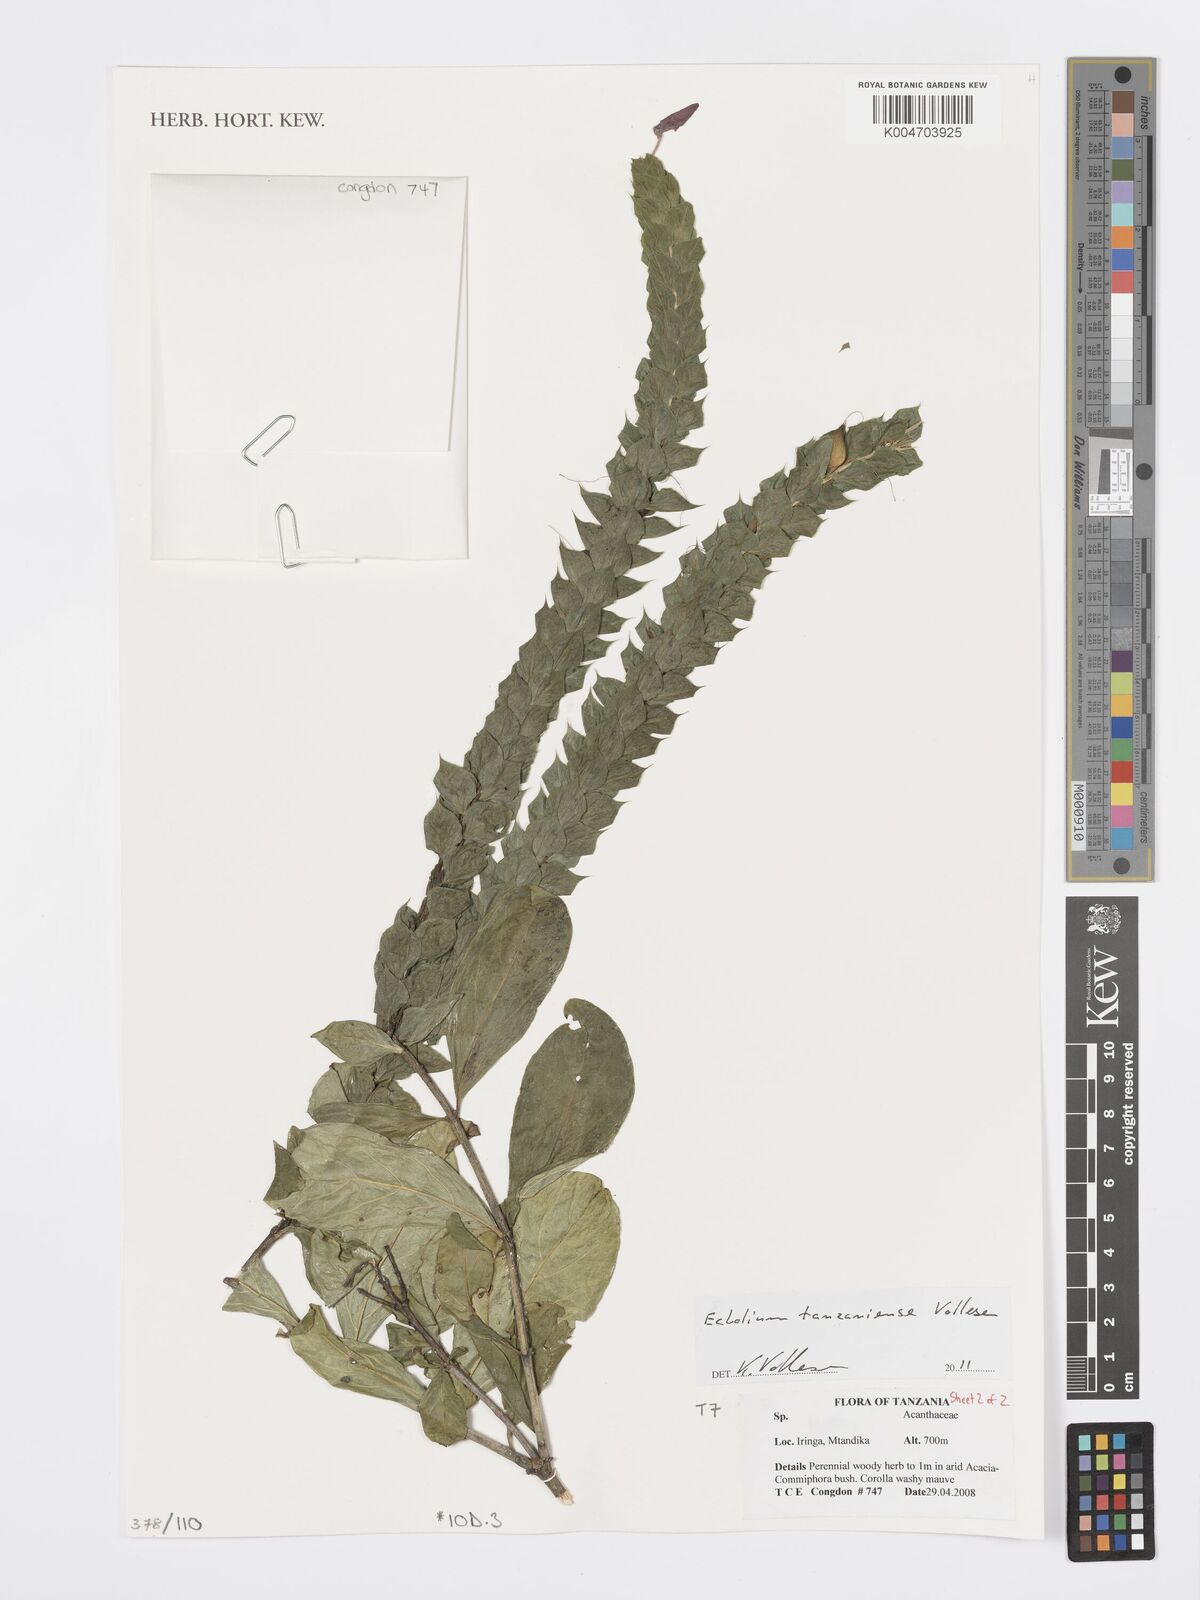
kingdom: Plantae
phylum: Tracheophyta
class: Magnoliopsida
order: Lamiales
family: Acanthaceae
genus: Ecbolium
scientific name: Ecbolium tanzaniense
